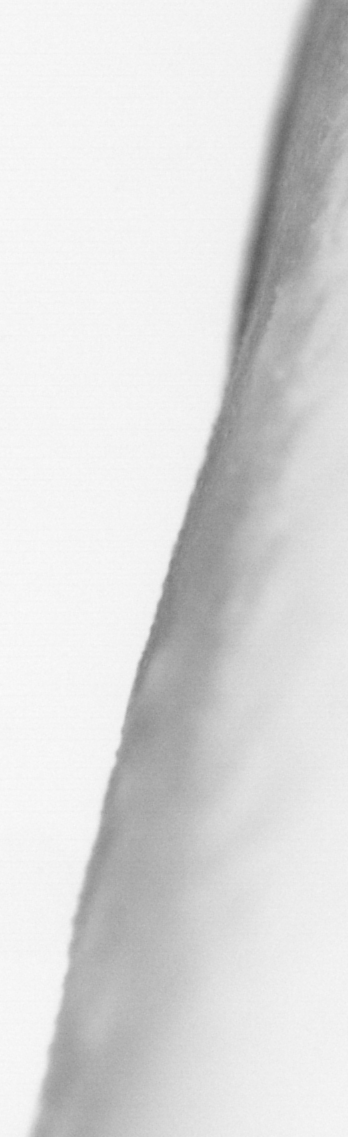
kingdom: Animalia
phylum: Chordata
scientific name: Chordata
